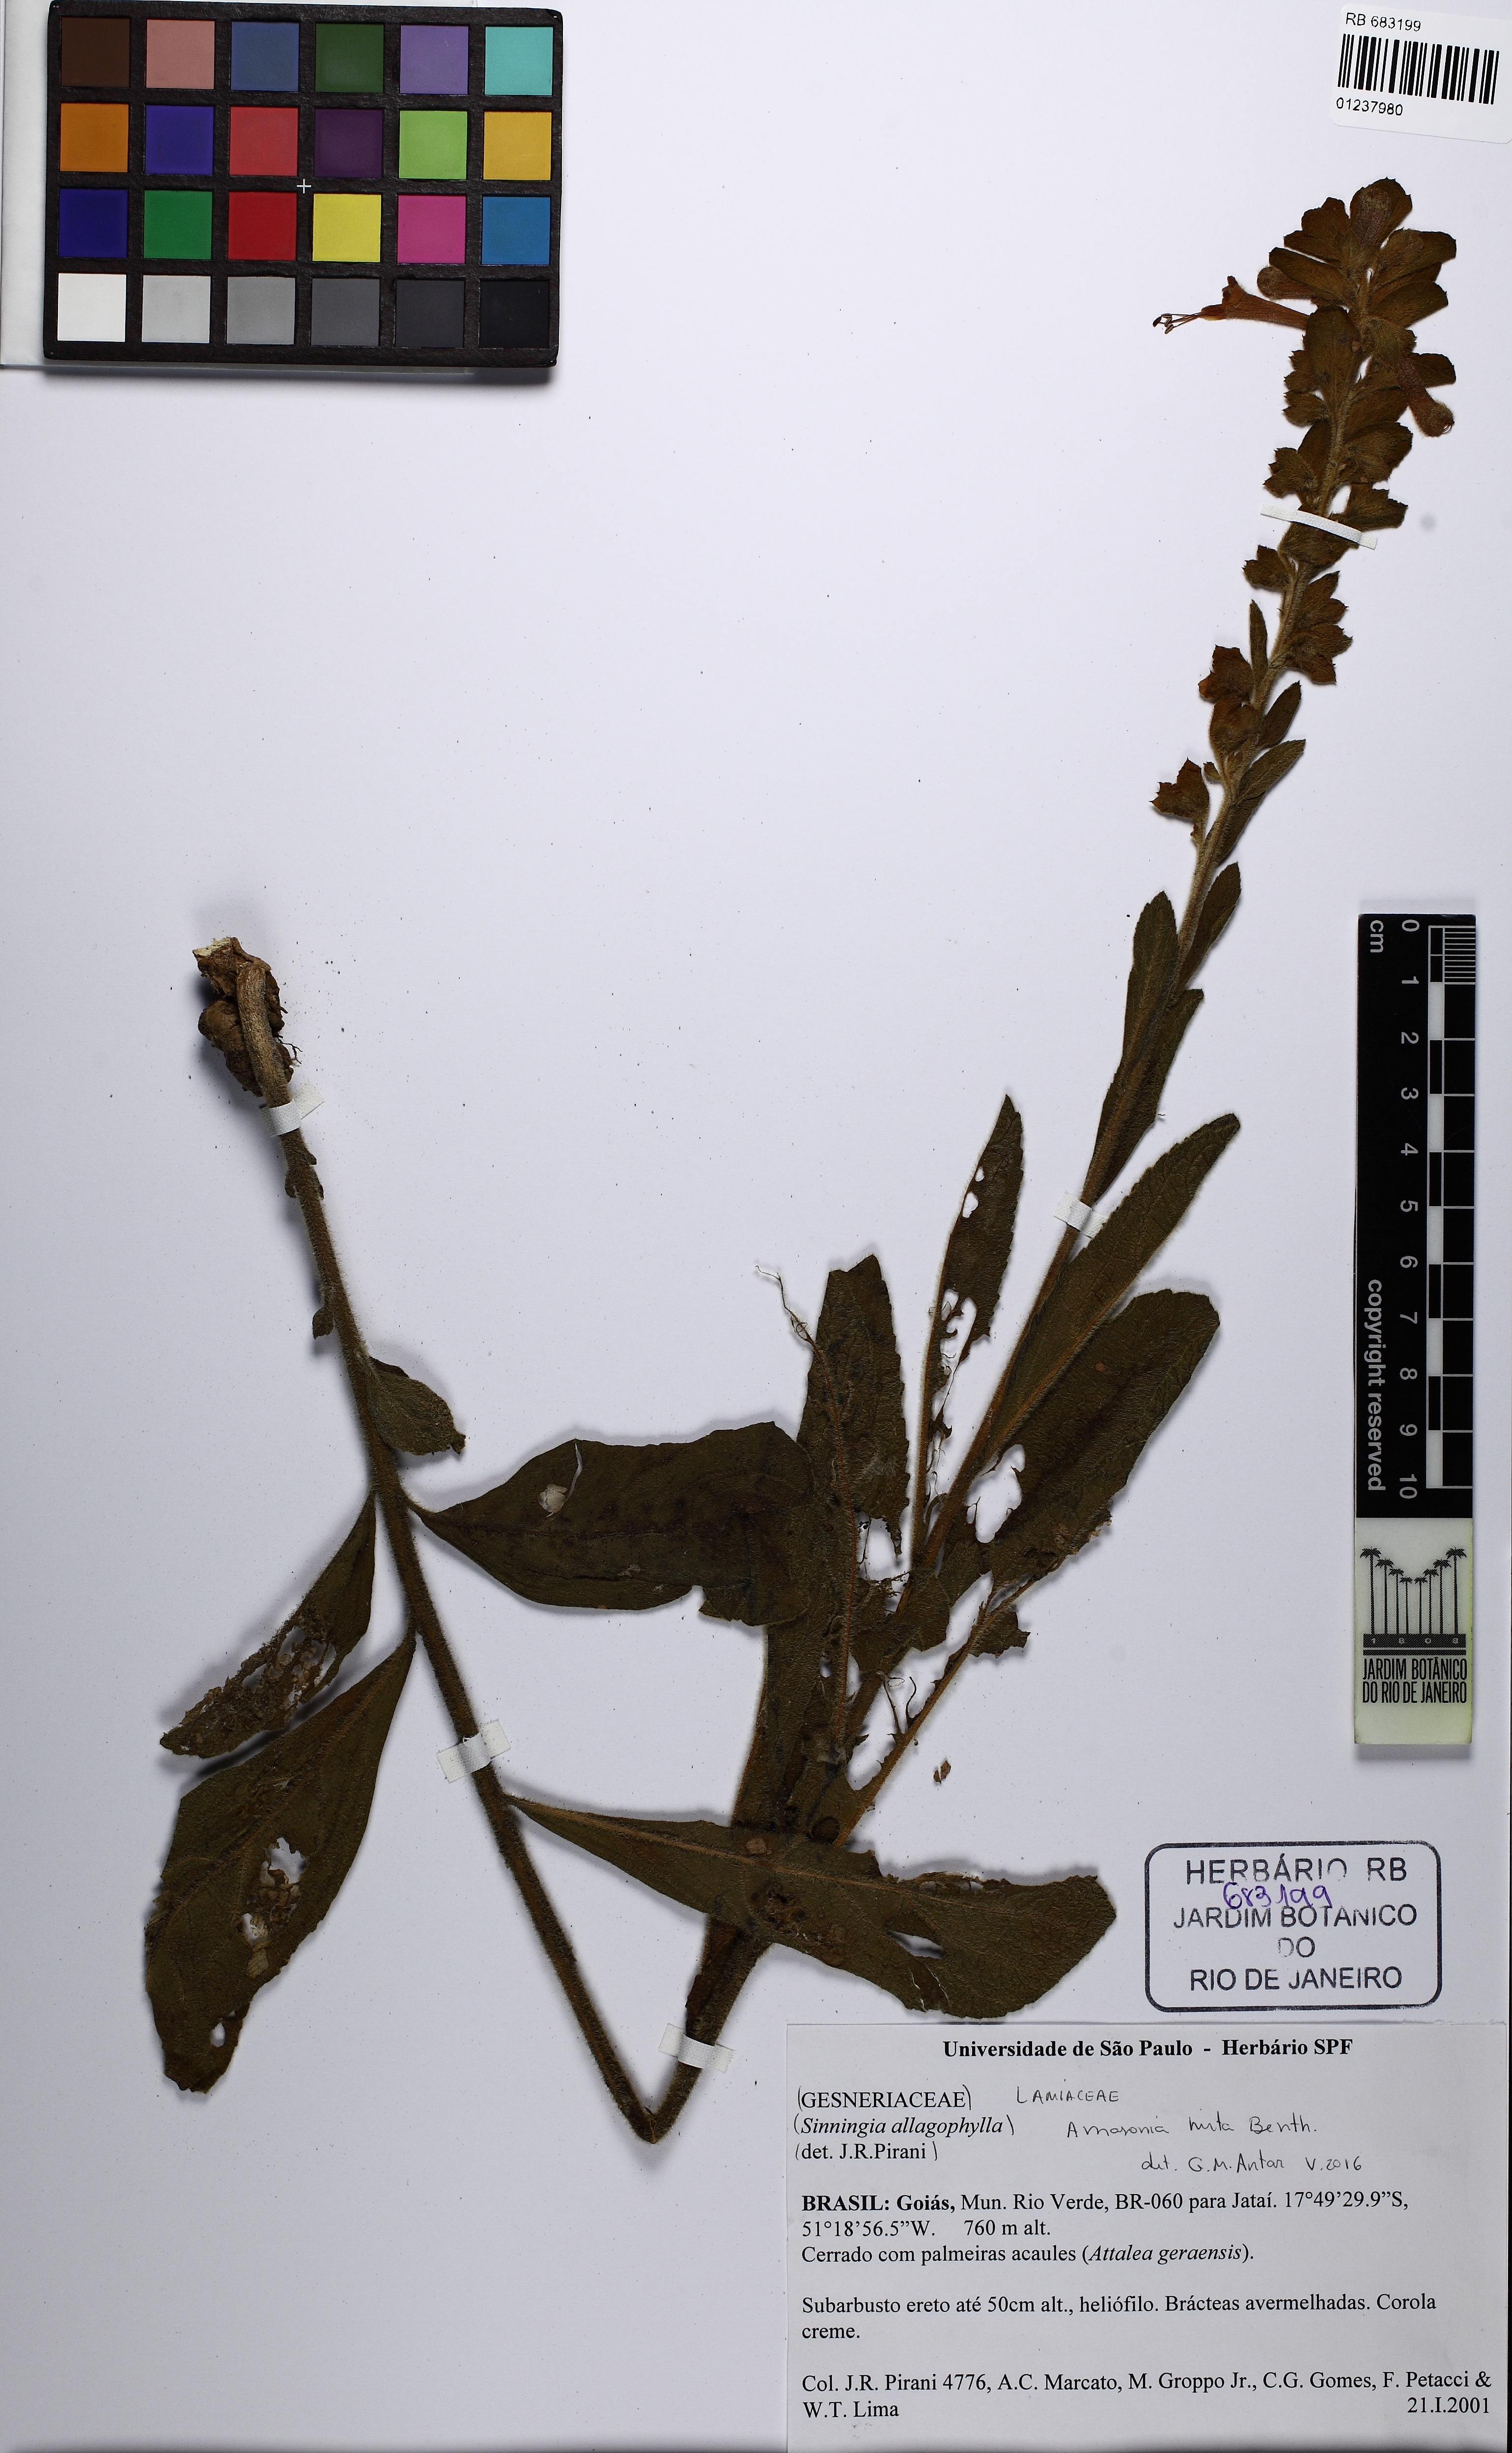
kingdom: Plantae
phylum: Tracheophyta
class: Magnoliopsida
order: Lamiales
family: Lamiaceae
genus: Amasonia
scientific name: Amasonia hirta
